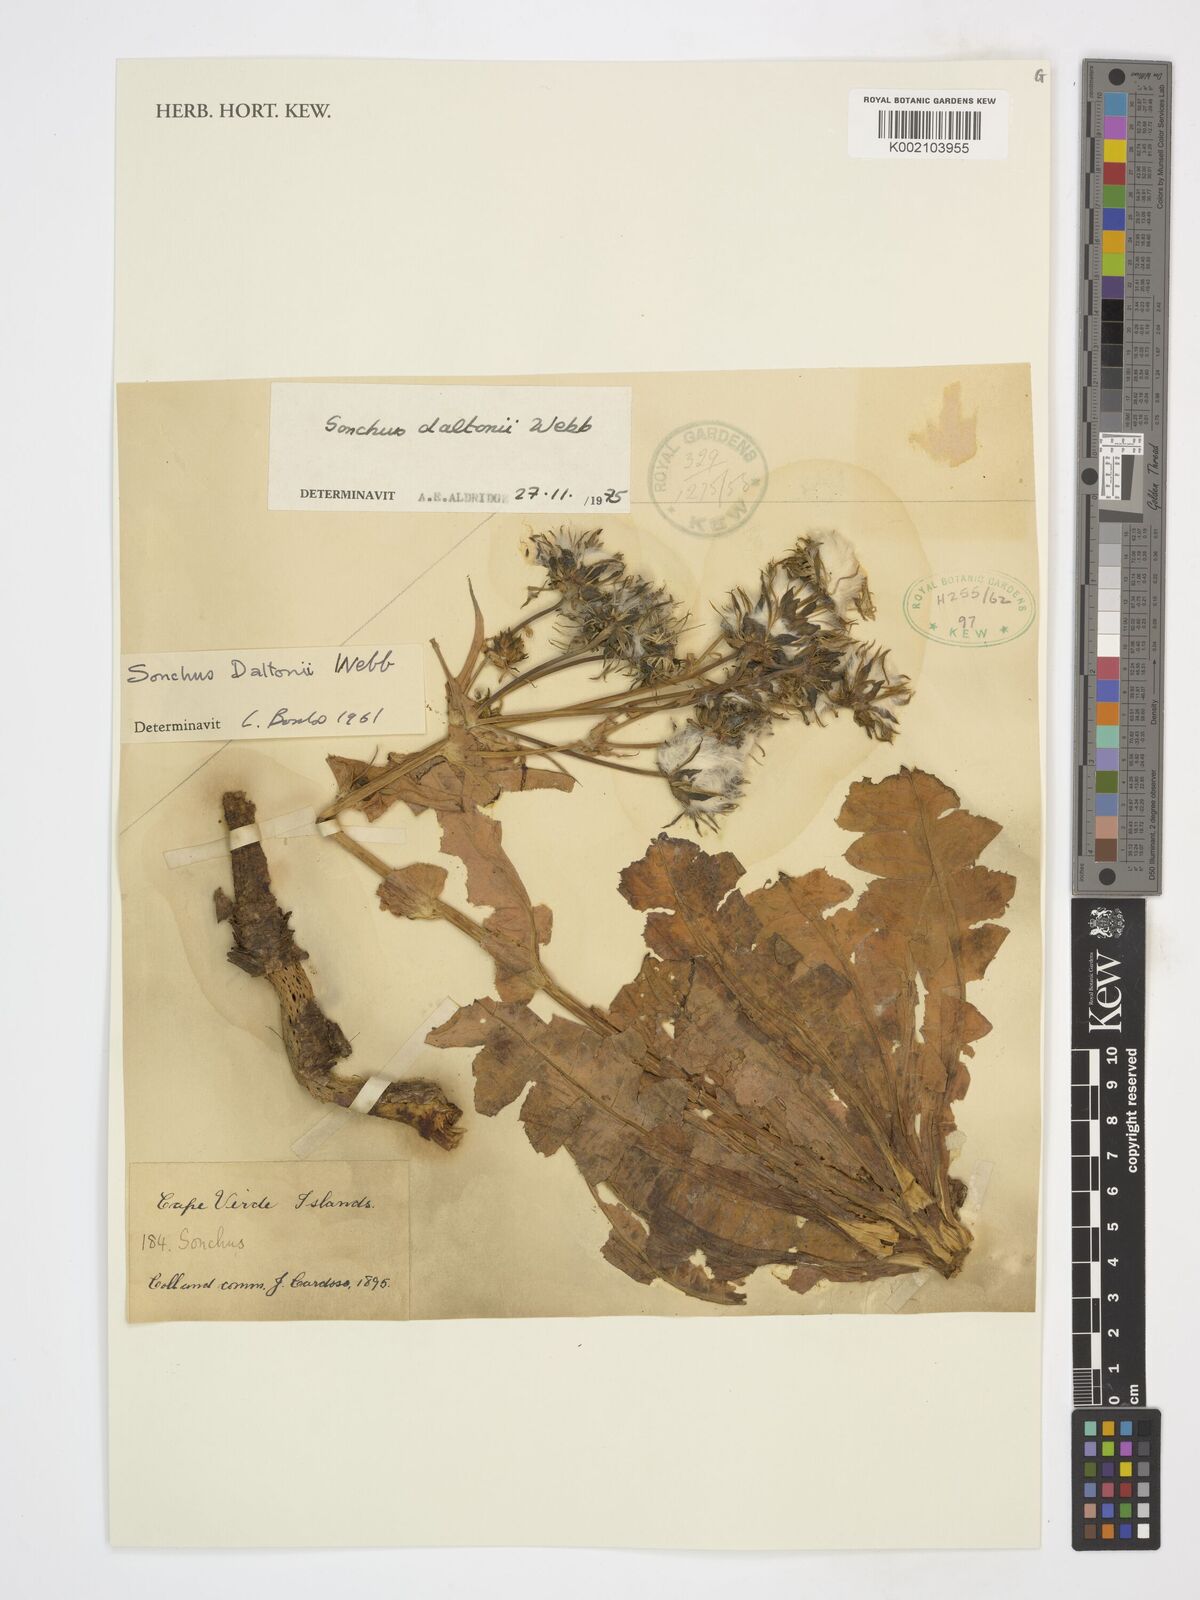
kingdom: Plantae
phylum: Tracheophyta
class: Magnoliopsida
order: Asterales
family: Asteraceae
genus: Sonchus
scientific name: Sonchus daltonii
